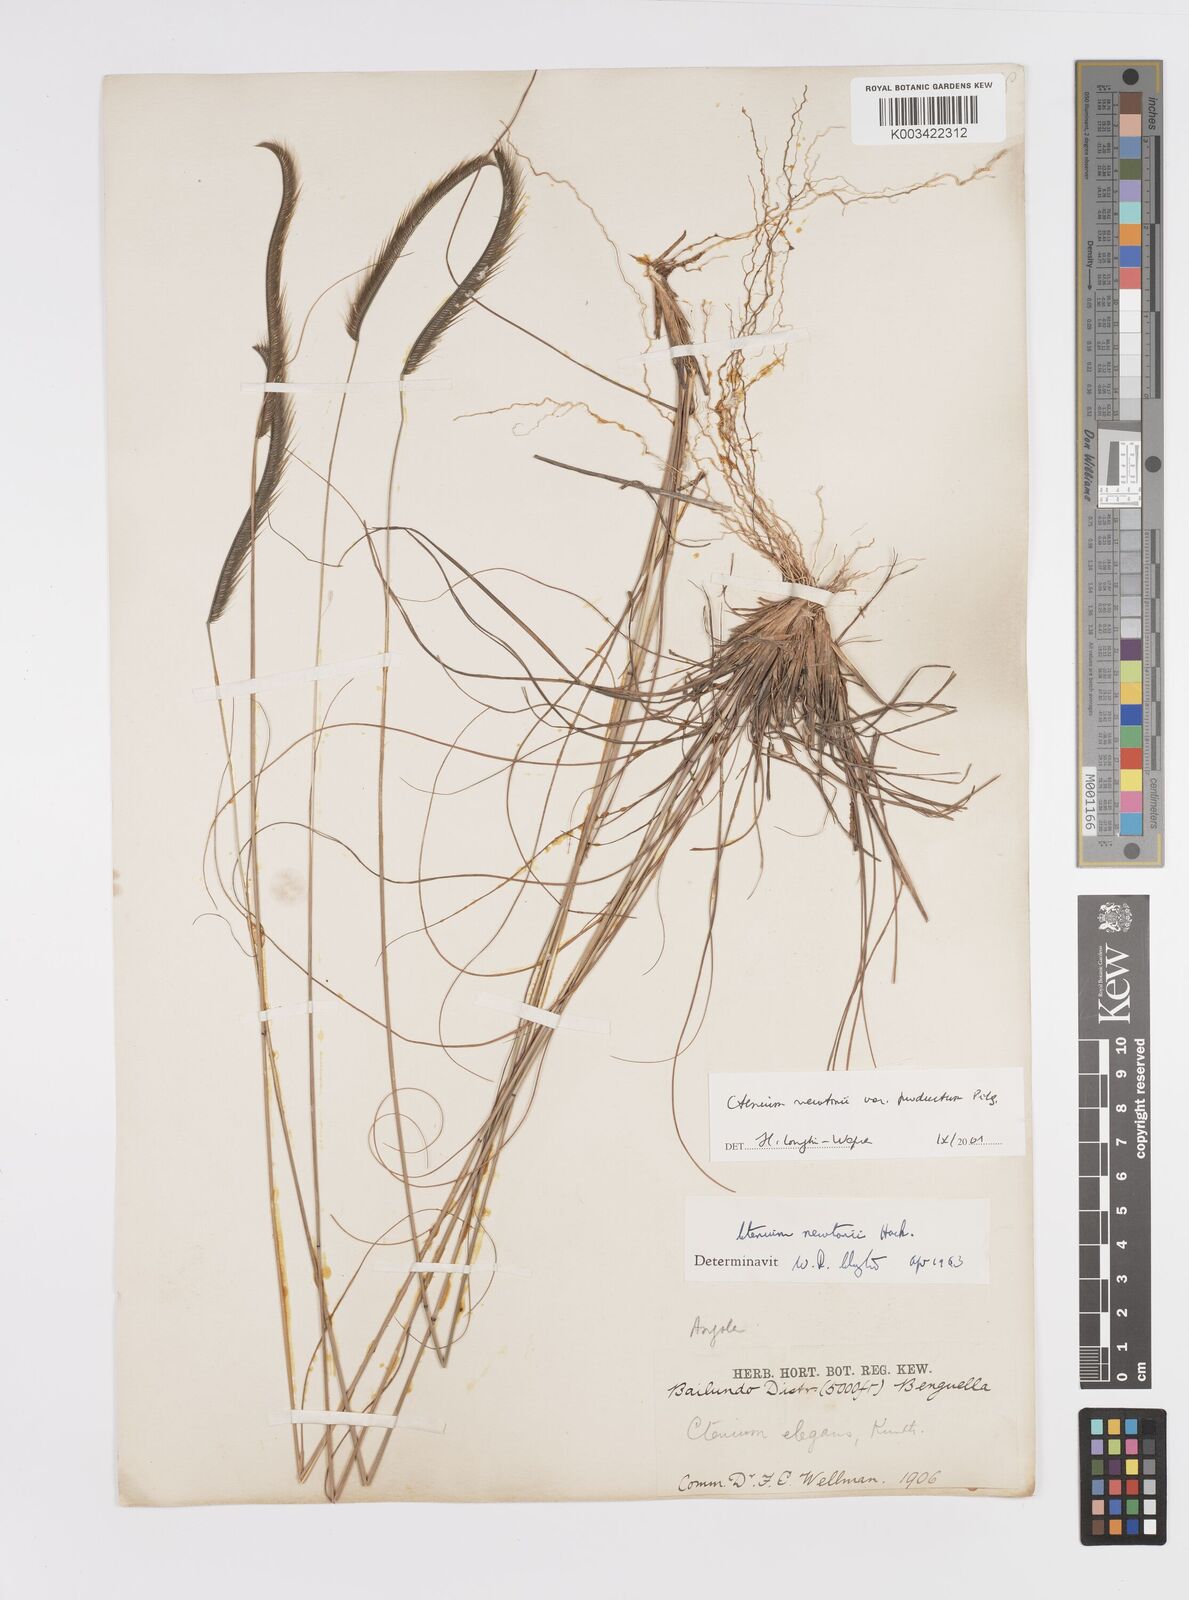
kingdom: Plantae
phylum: Tracheophyta
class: Liliopsida
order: Poales
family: Poaceae
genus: Ctenium
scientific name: Ctenium newtonii
